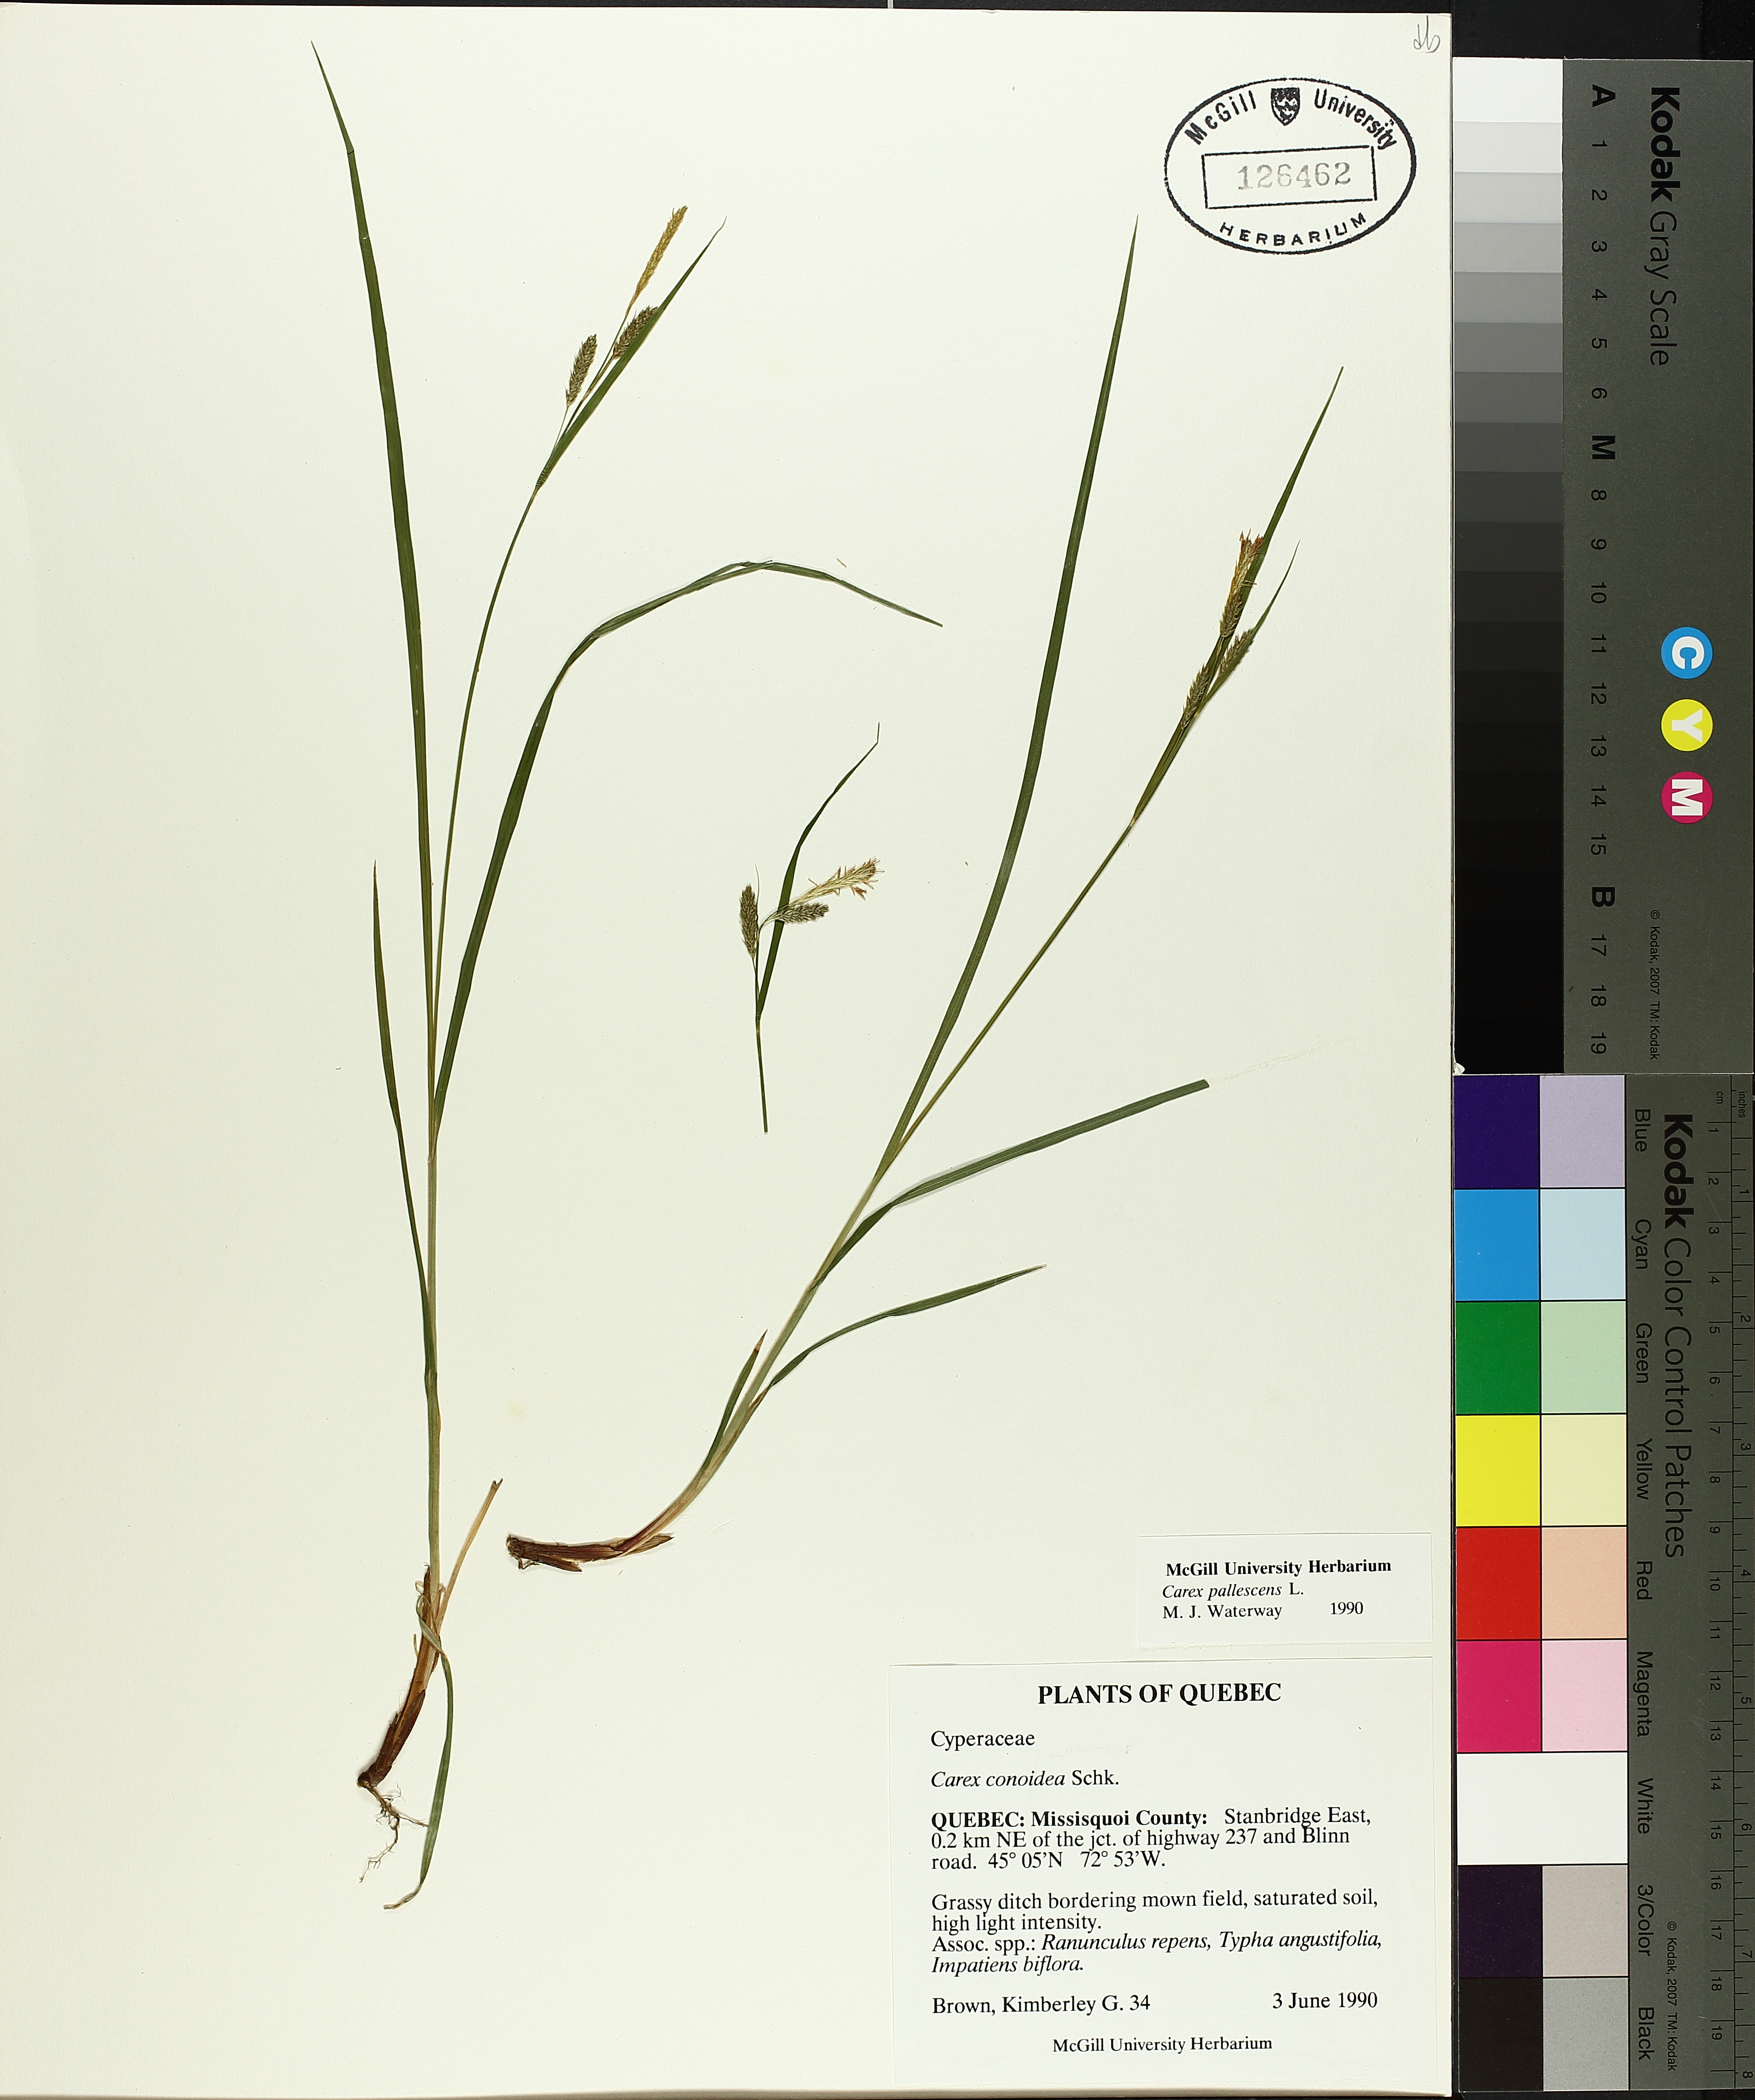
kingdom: Plantae
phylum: Tracheophyta
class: Liliopsida
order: Poales
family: Cyperaceae
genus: Carex
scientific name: Carex pallescens
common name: Pale sedge
